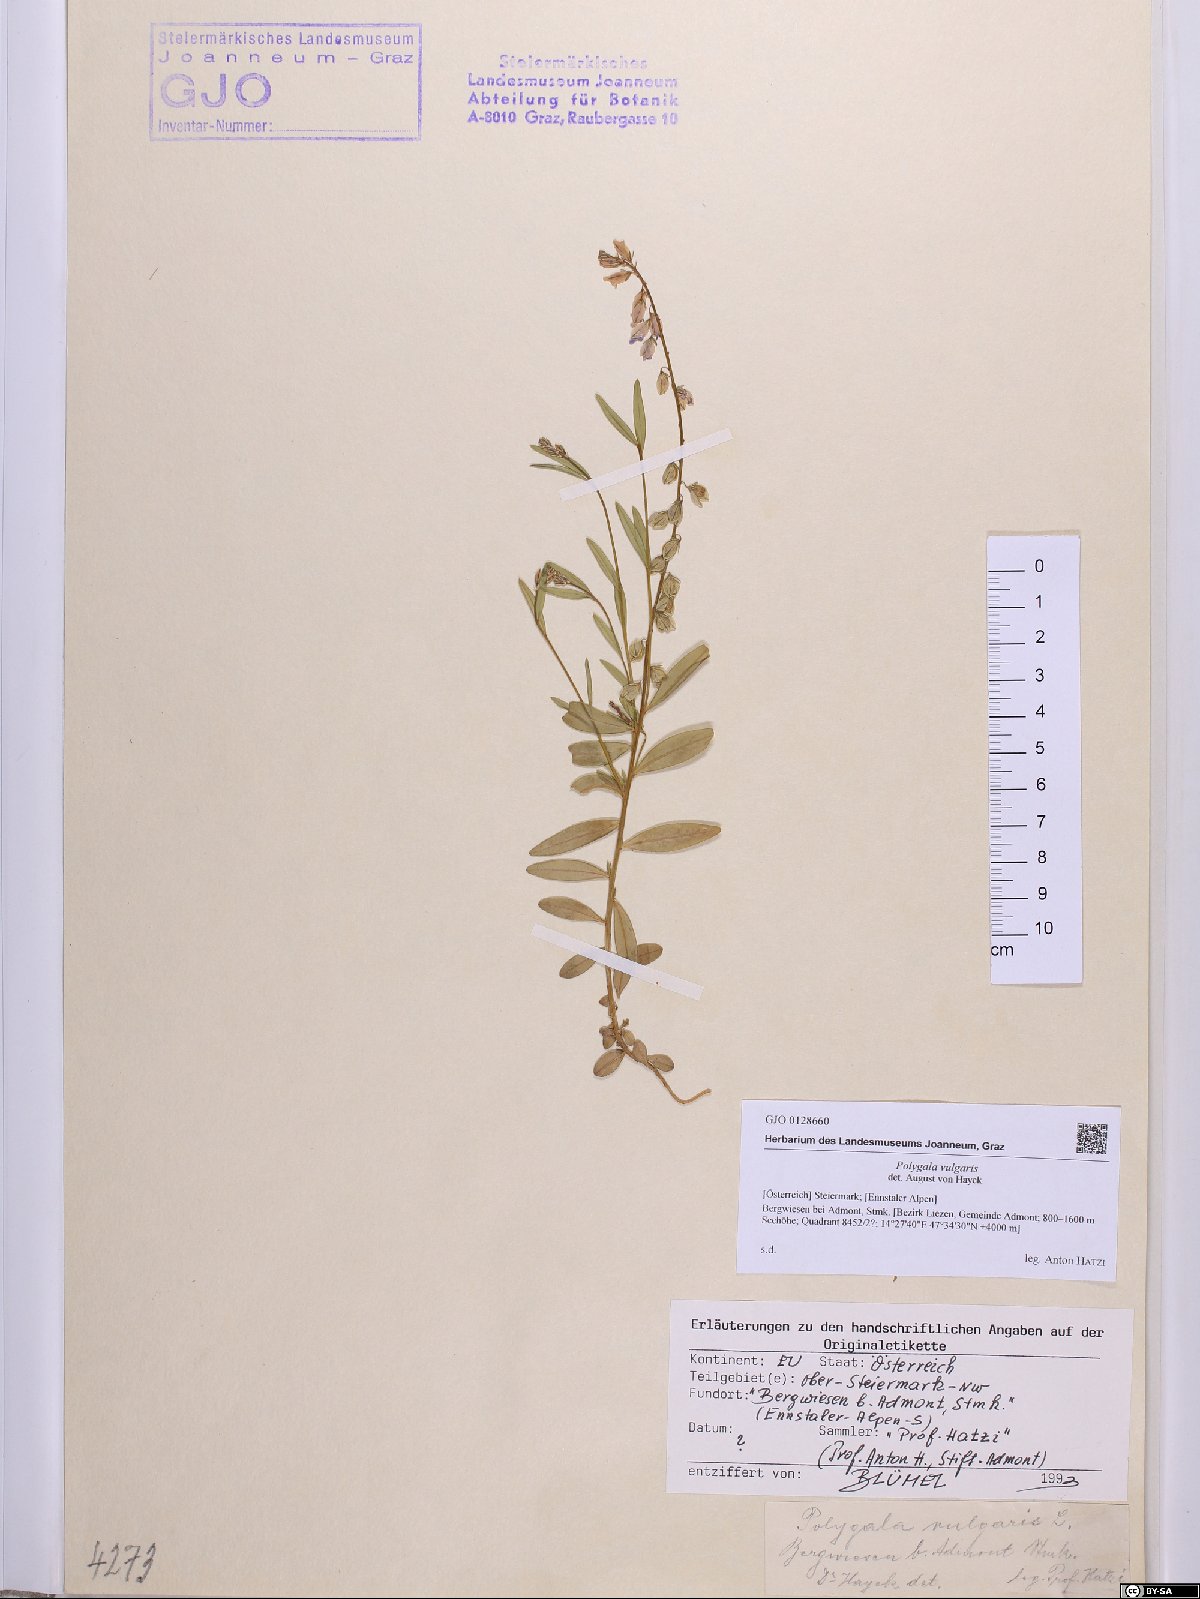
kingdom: Plantae
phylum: Tracheophyta
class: Magnoliopsida
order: Fabales
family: Polygalaceae
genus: Polygala
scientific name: Polygala vulgaris
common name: Common milkwort
